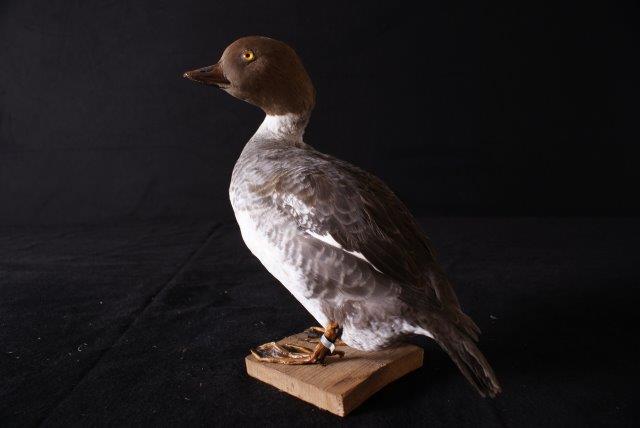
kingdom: Animalia
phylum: Chordata
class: Aves
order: Anseriformes
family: Anatidae
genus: Bucephala
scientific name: Bucephala clangula
